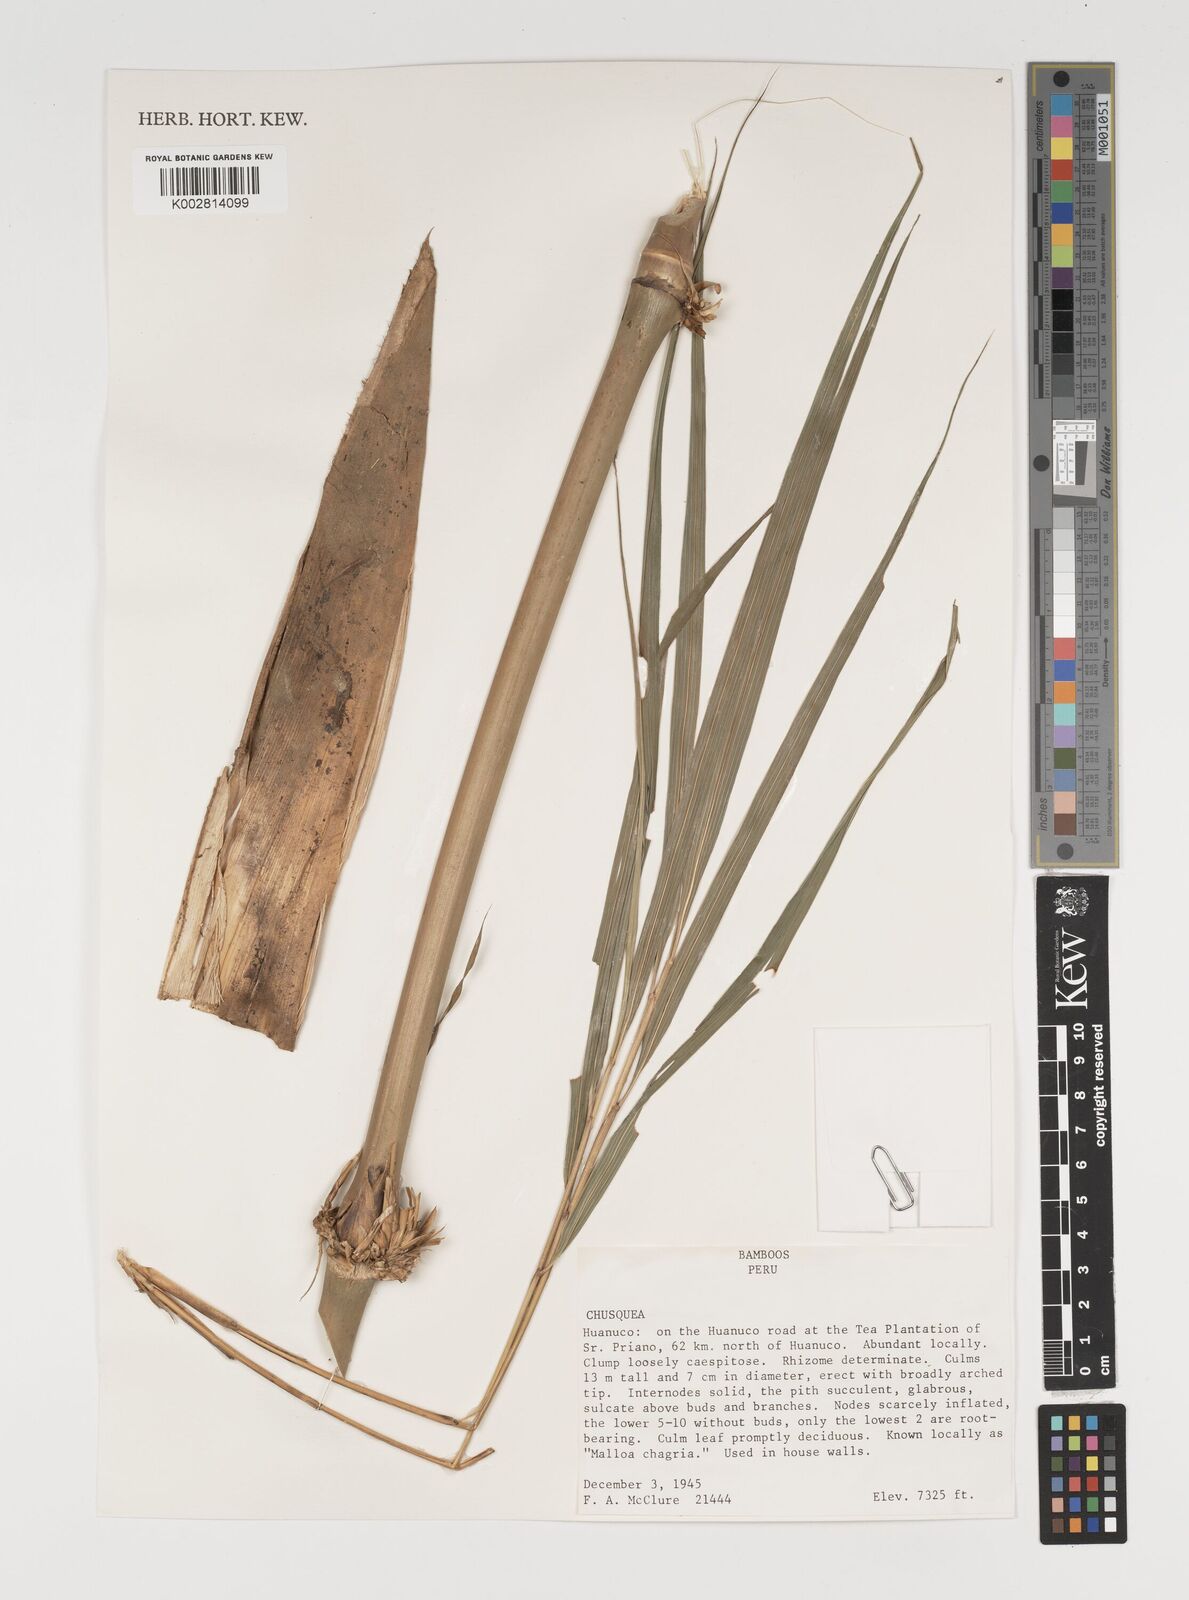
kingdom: Plantae
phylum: Tracheophyta
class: Liliopsida
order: Poales
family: Poaceae
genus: Chusquea
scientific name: Chusquea
